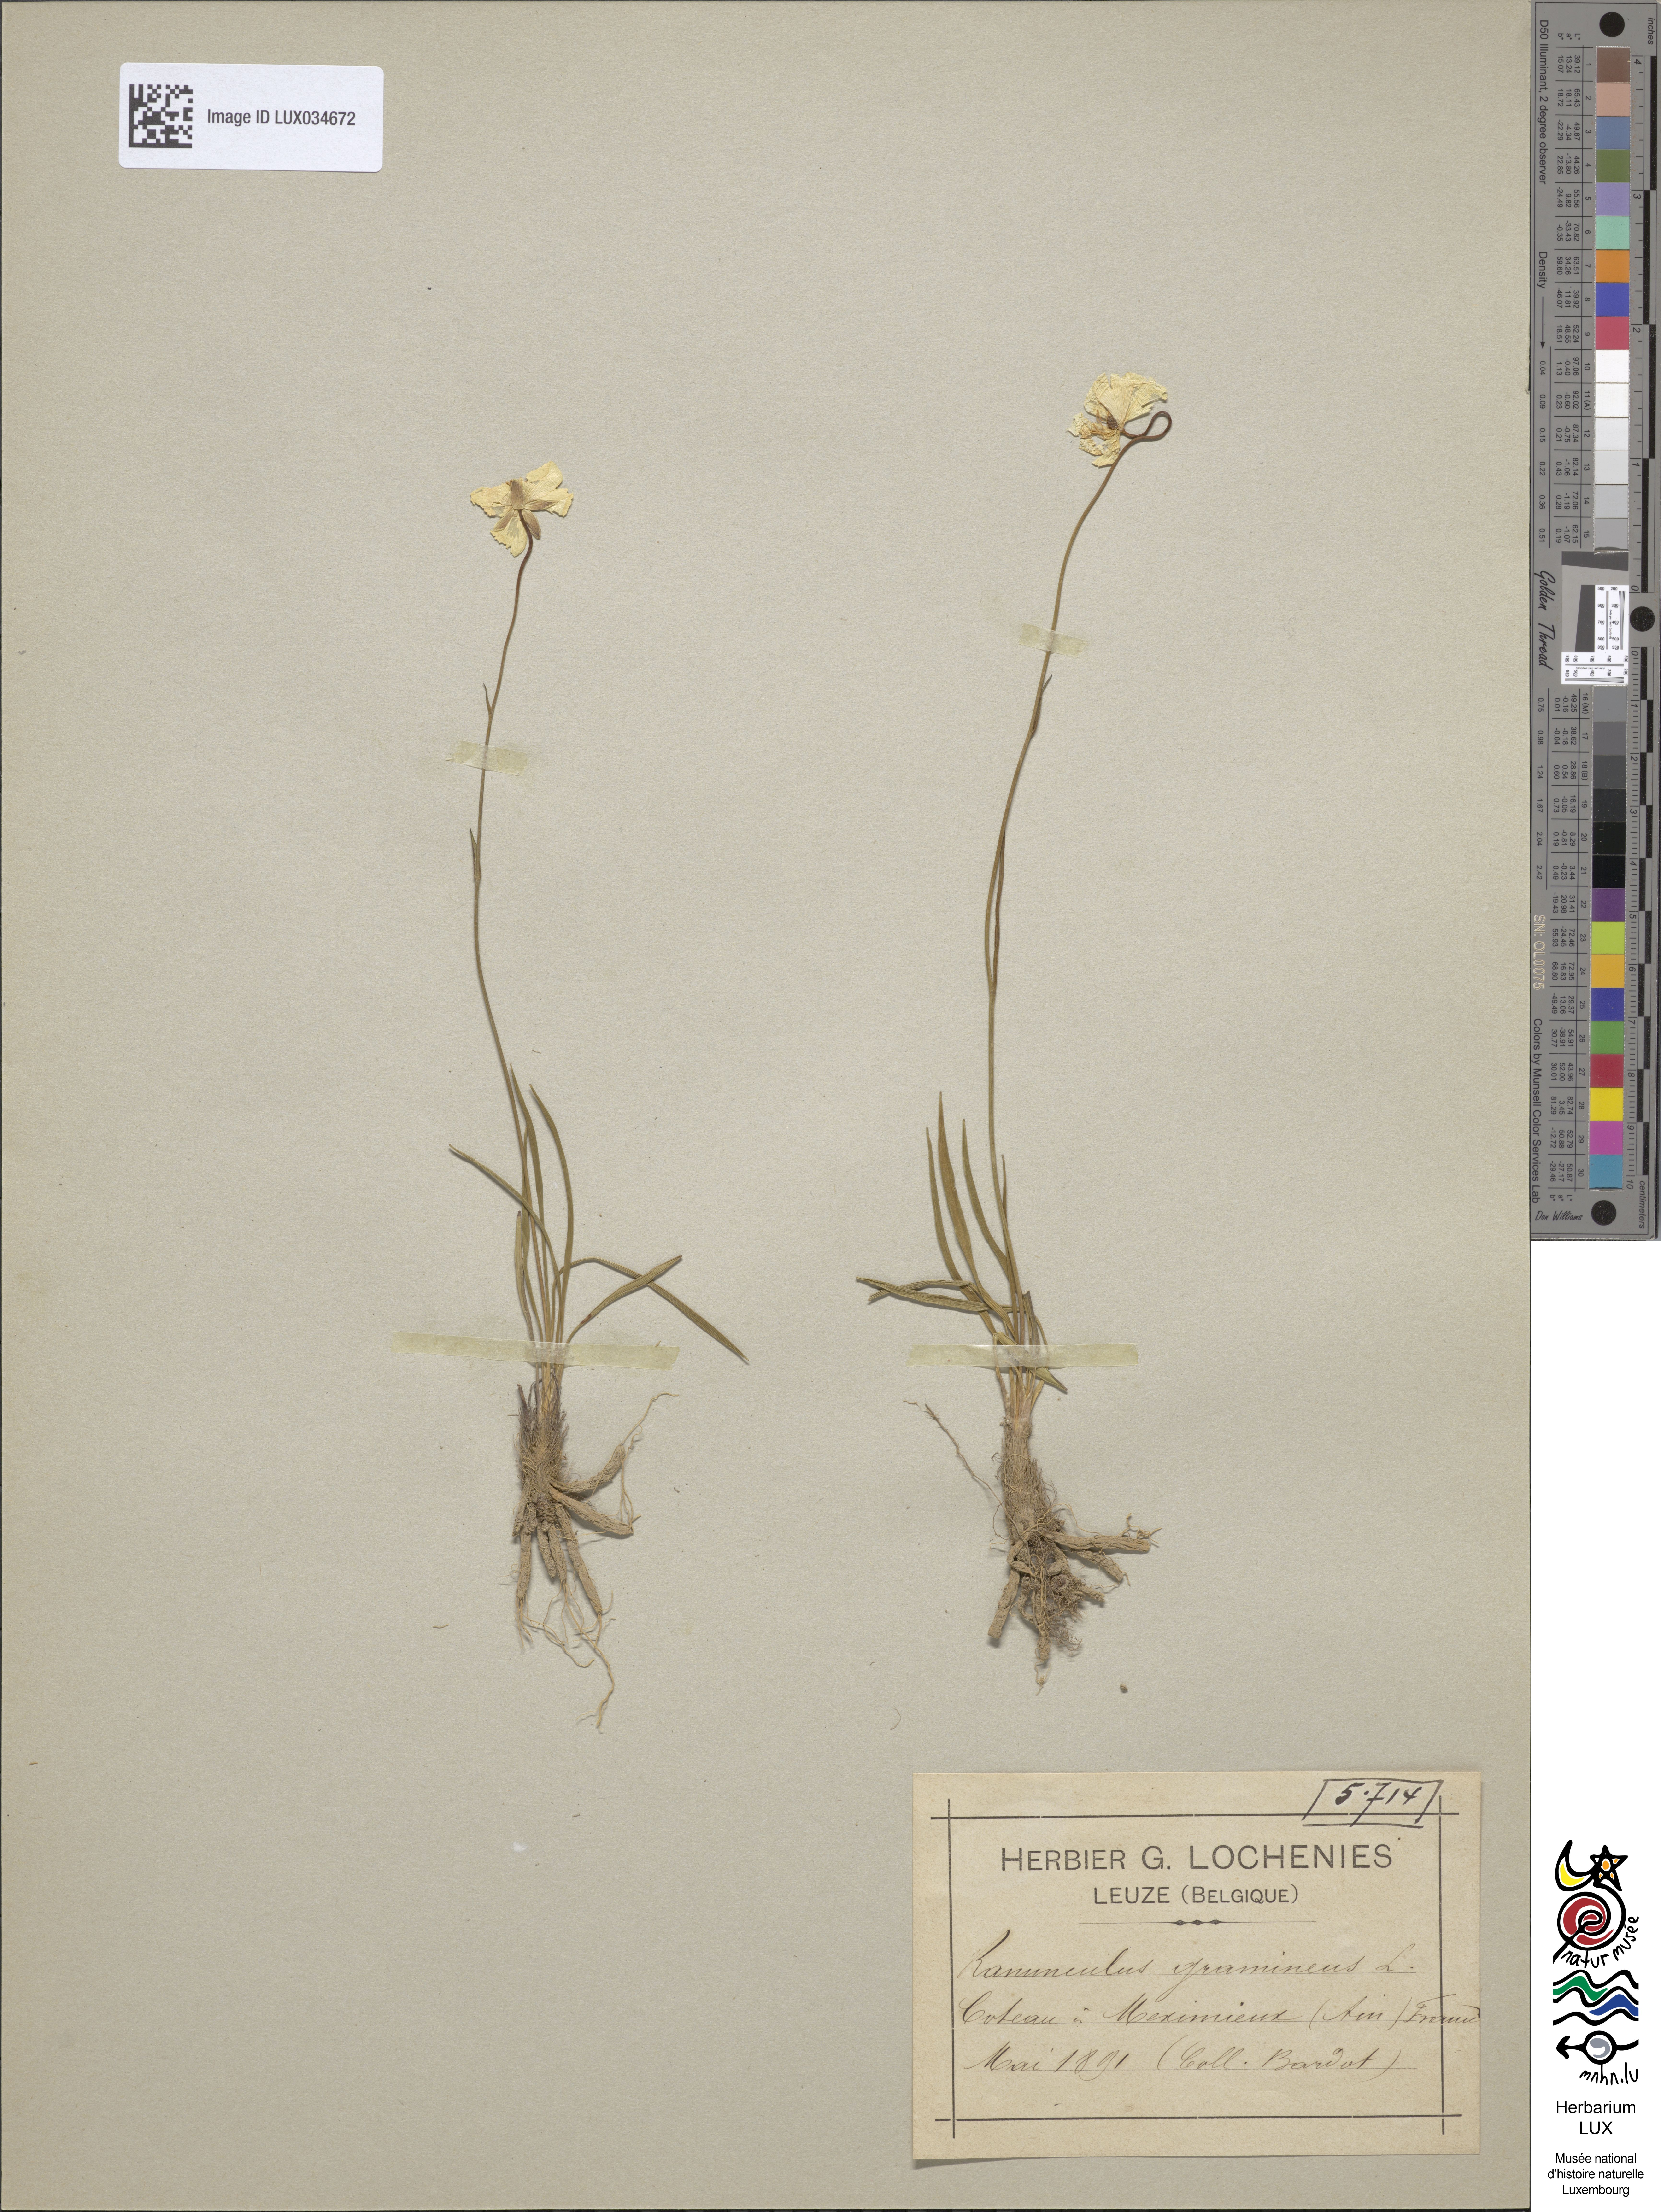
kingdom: Plantae
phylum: Tracheophyta
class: Magnoliopsida
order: Ranunculales
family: Ranunculaceae
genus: Ranunculus
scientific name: Ranunculus gramineus
